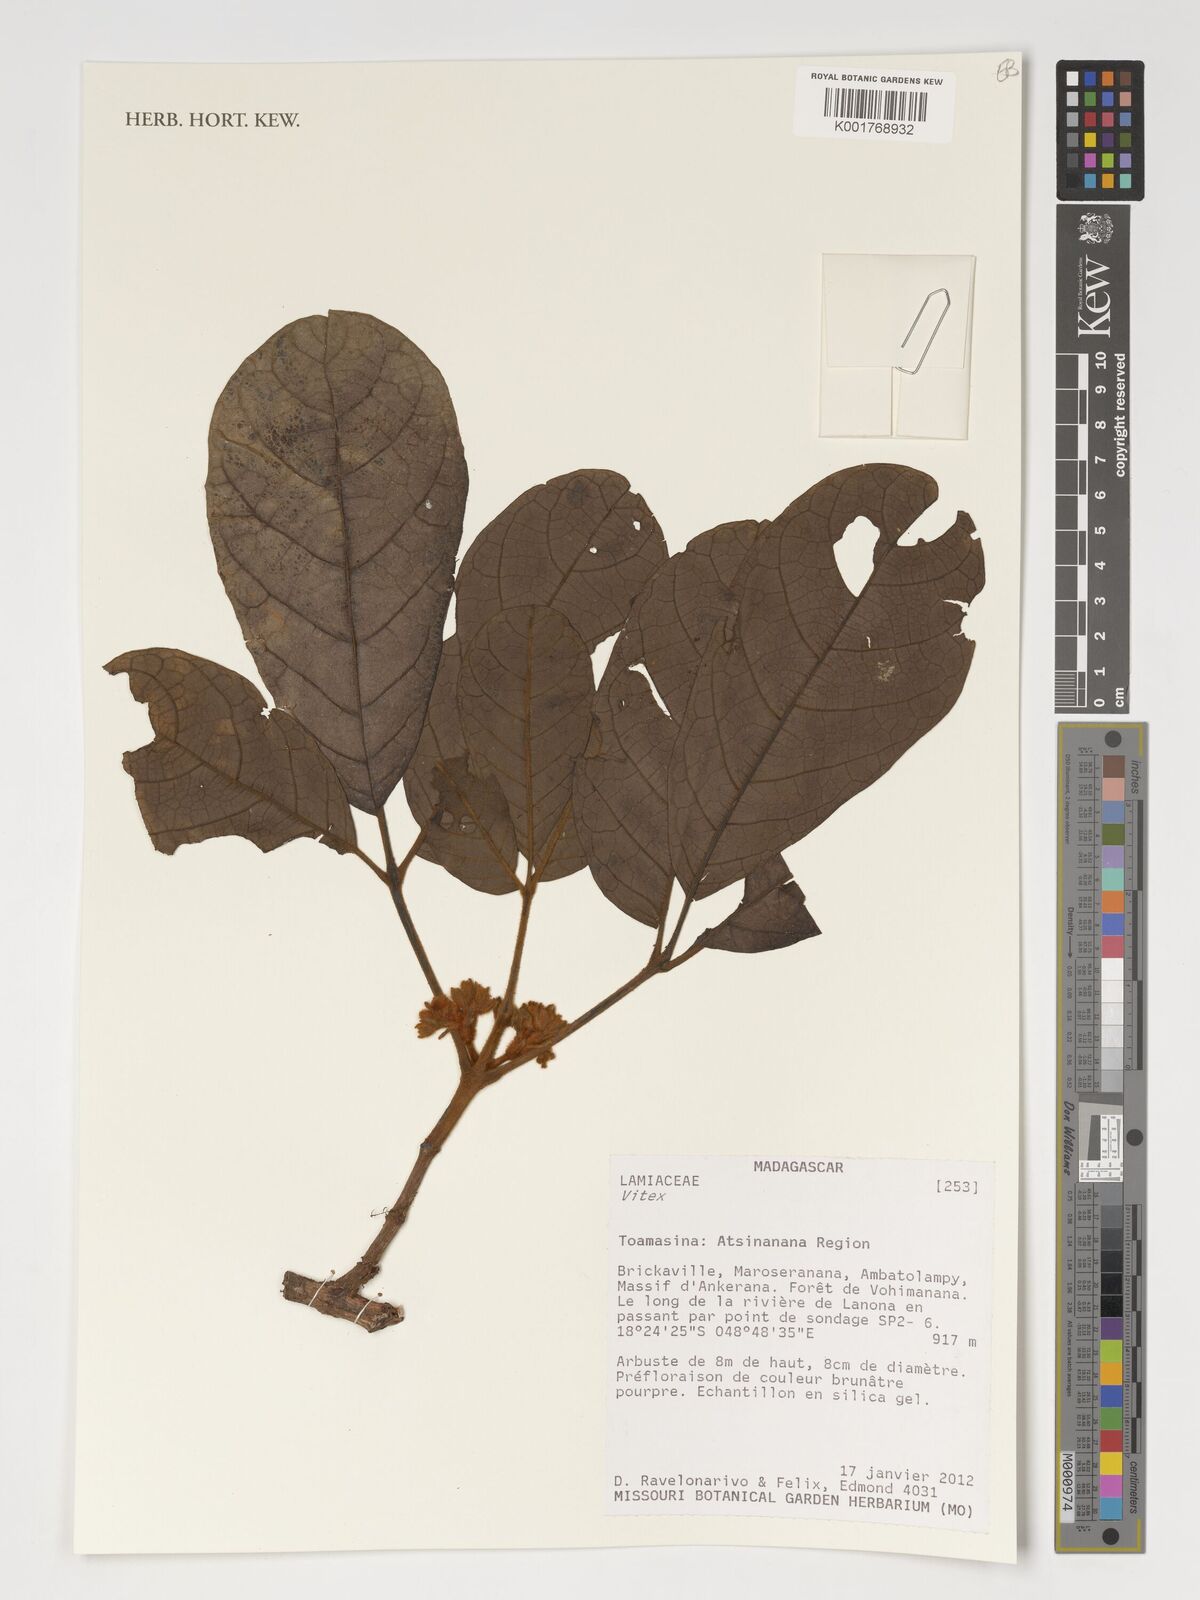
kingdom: Plantae
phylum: Tracheophyta
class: Magnoliopsida
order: Lamiales
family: Lamiaceae
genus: Vitex
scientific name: Vitex
